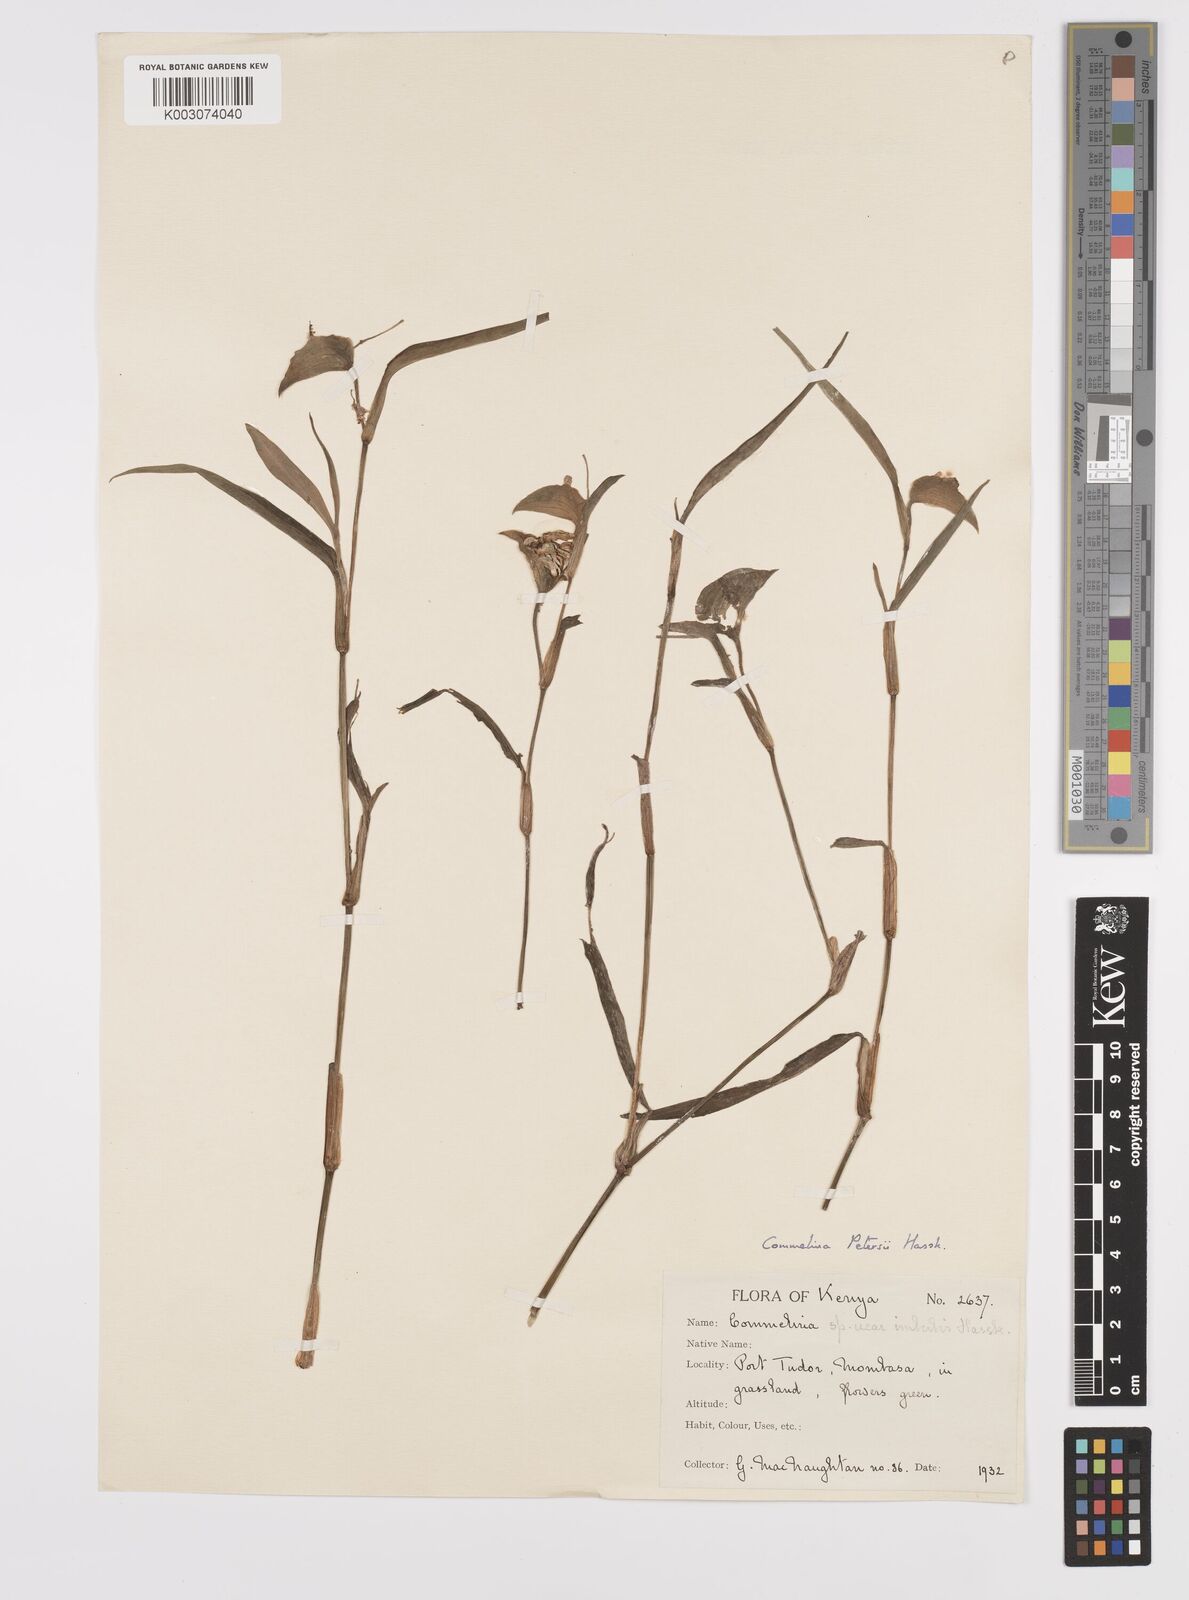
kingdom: Plantae
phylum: Tracheophyta
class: Liliopsida
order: Commelinales
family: Commelinaceae
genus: Commelina
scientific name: Commelina petersii
